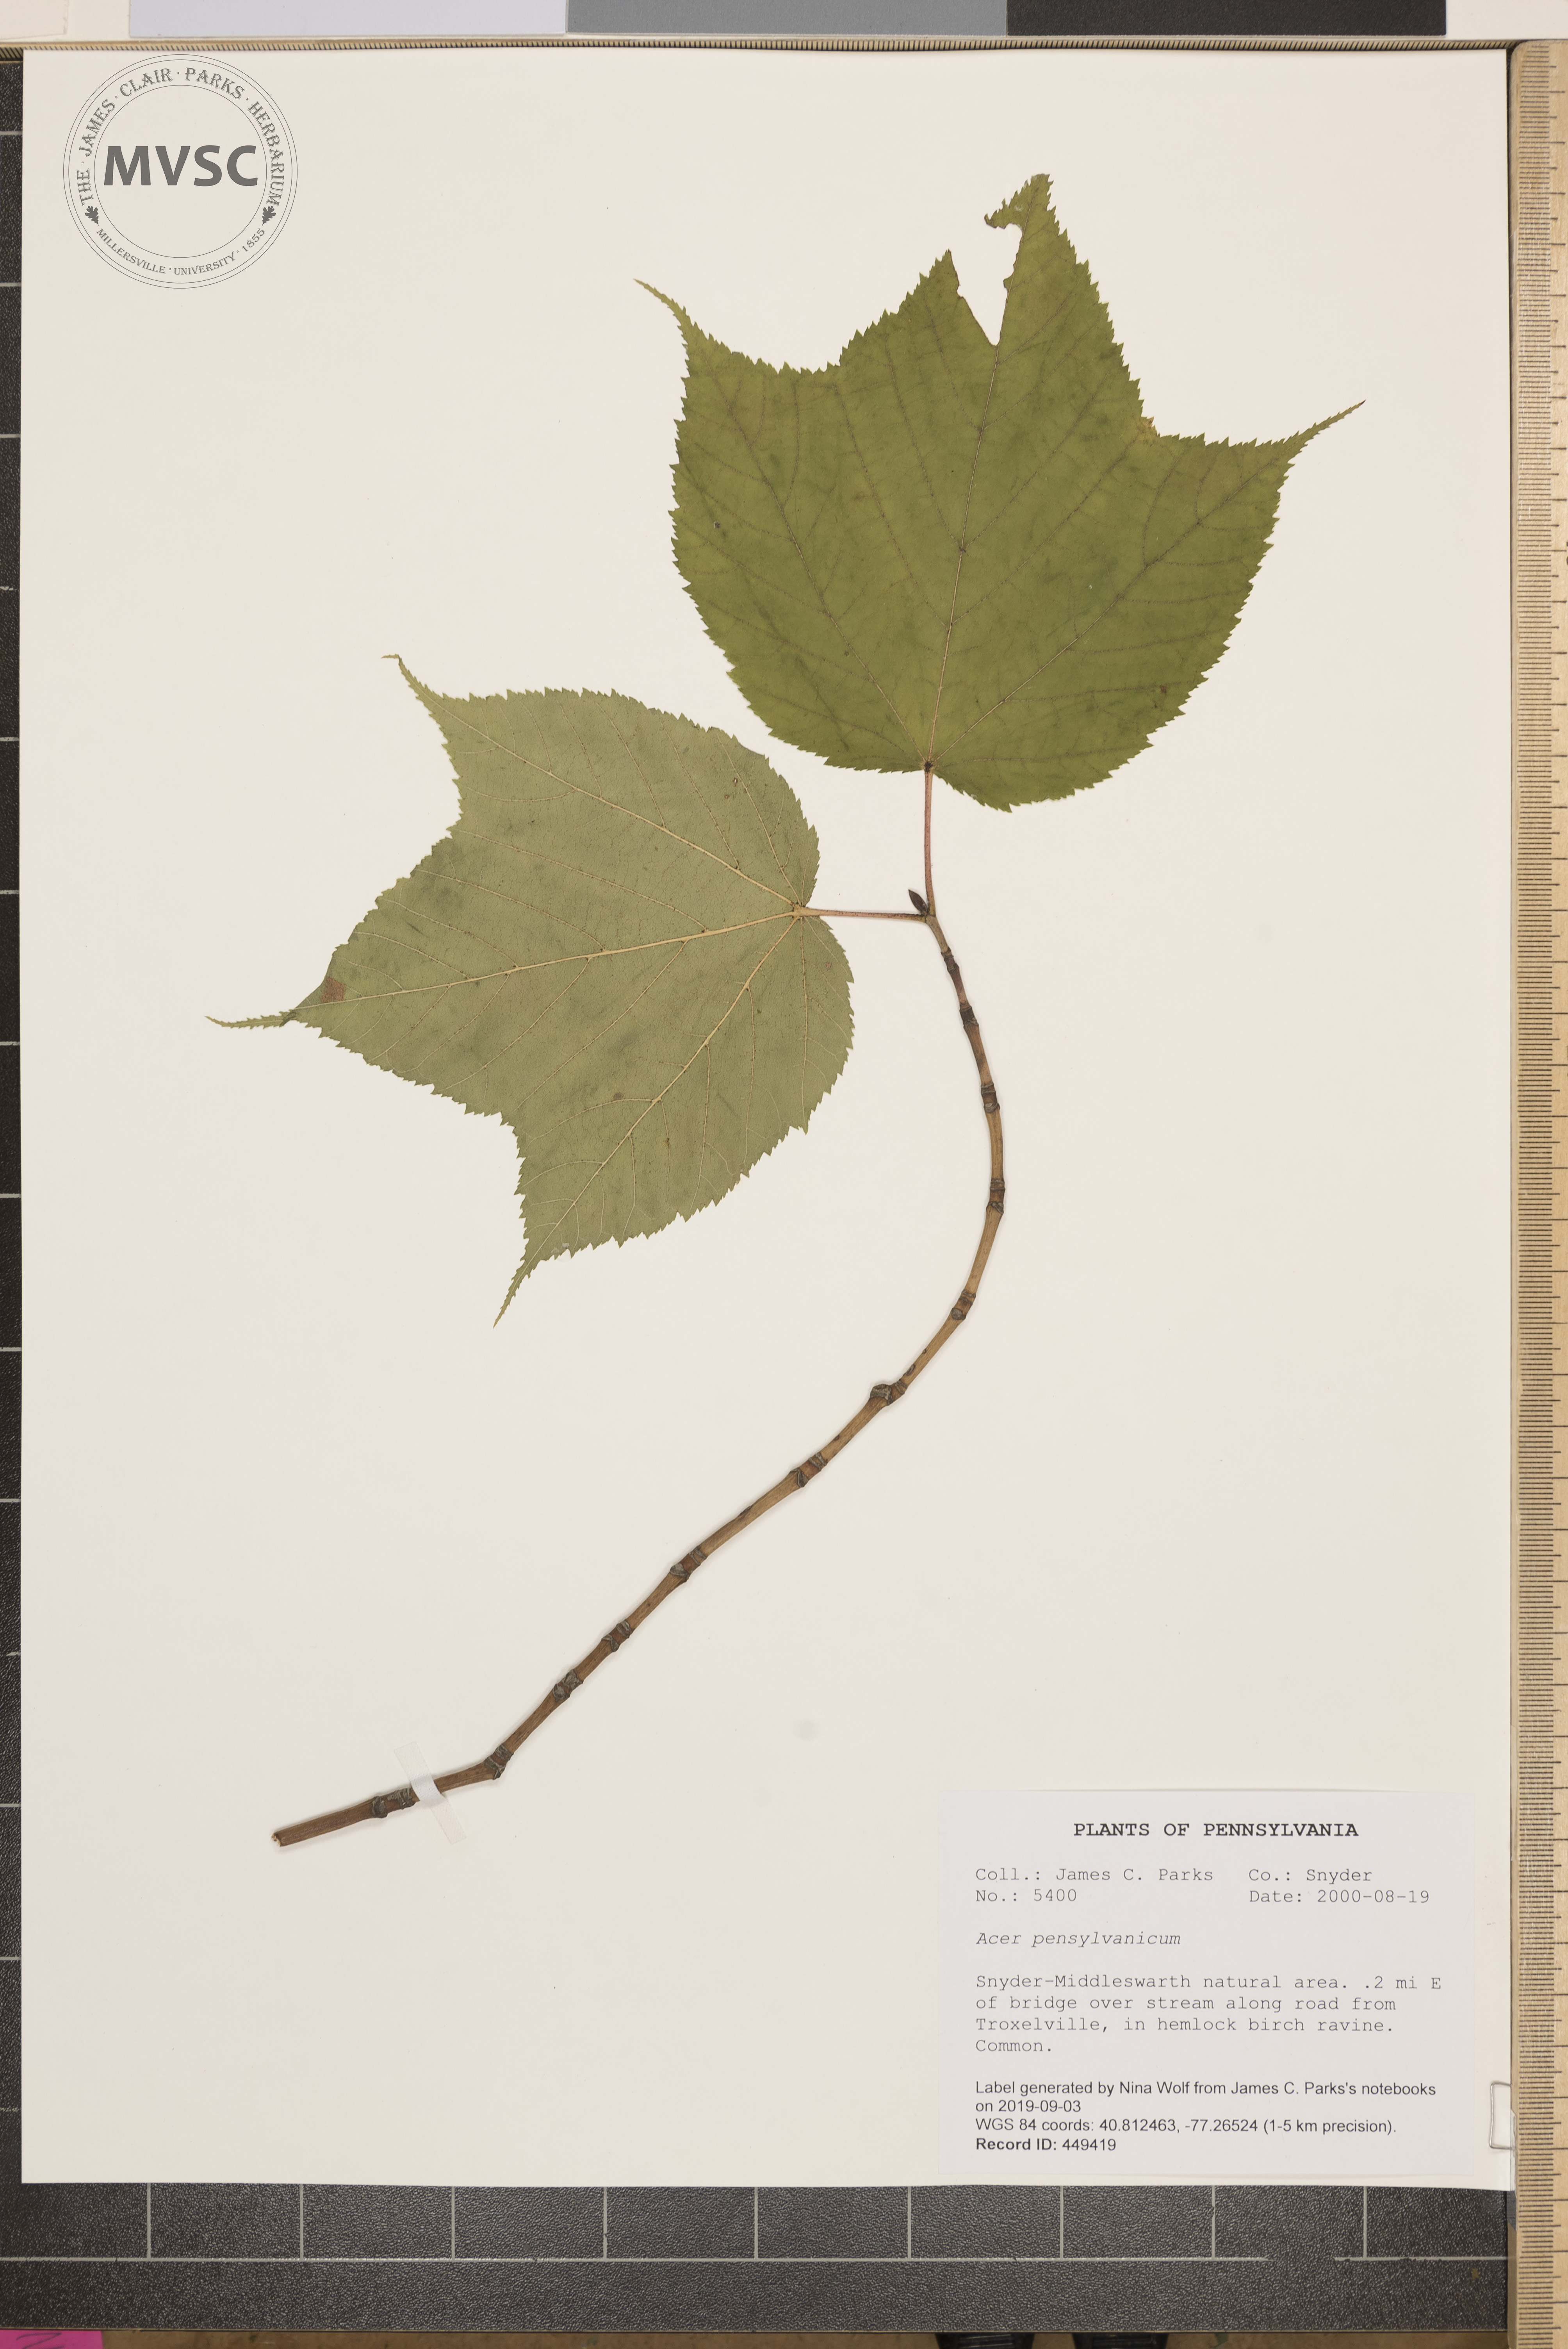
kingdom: Plantae
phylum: Tracheophyta
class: Magnoliopsida
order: Sapindales
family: Sapindaceae
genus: Acer
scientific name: Acer pensylvanicum
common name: Moosewood
